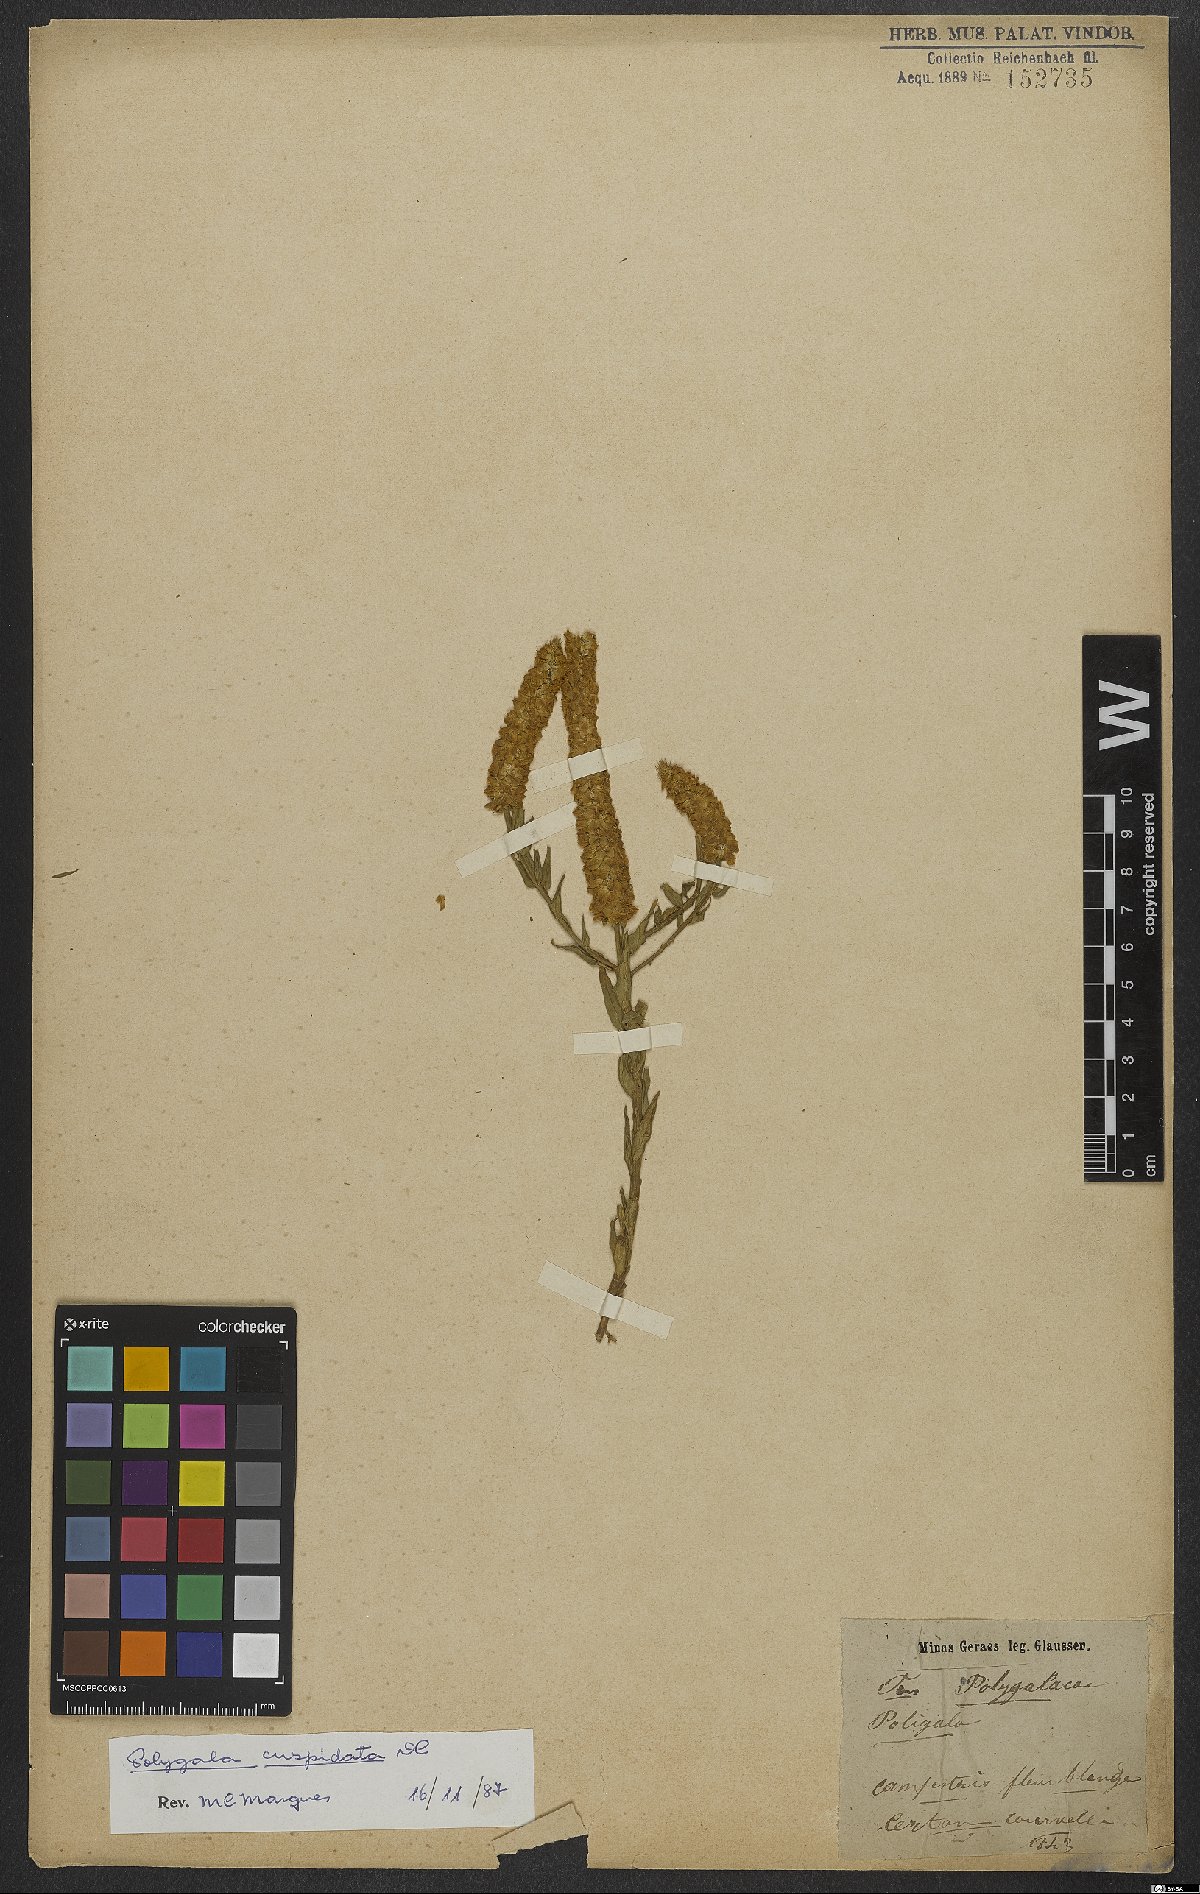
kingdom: Plantae
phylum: Tracheophyta
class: Magnoliopsida
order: Fabales
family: Polygalaceae
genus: Polygala
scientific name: Polygala cuspidata
